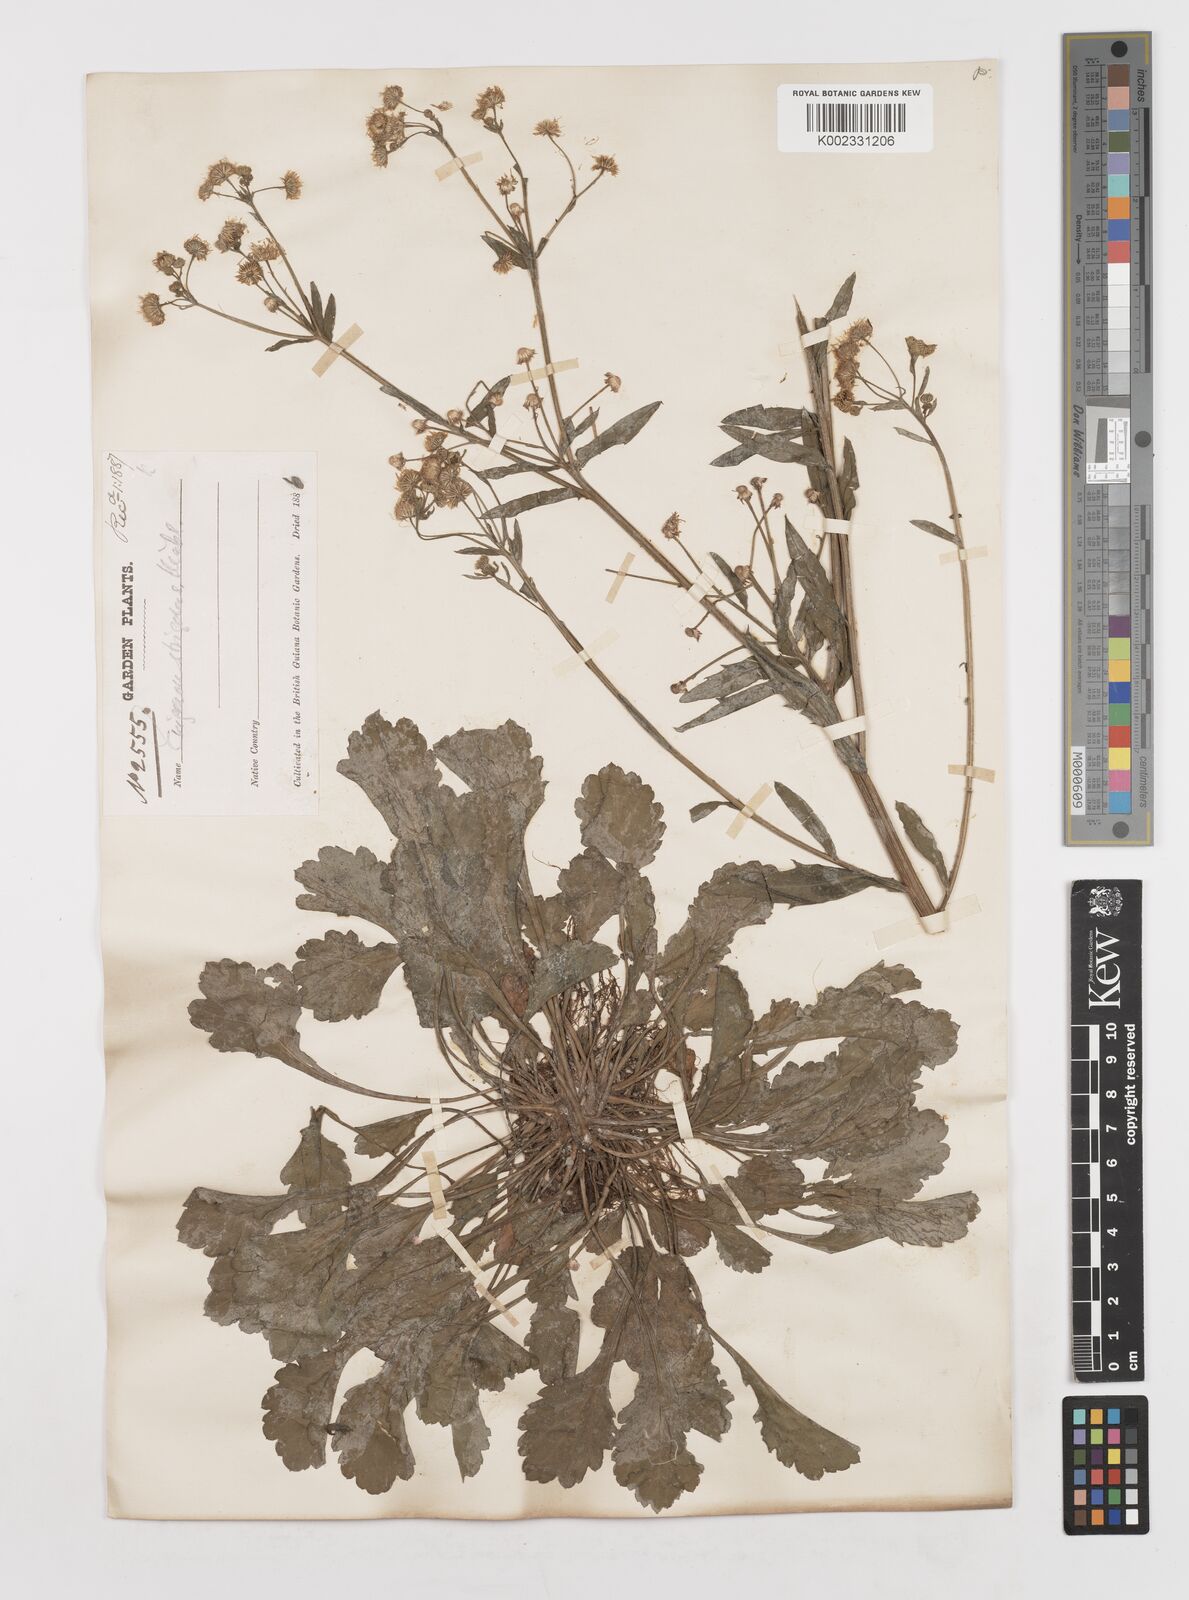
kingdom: Plantae
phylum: Tracheophyta
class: Magnoliopsida
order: Asterales
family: Asteraceae
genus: Erigeron
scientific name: Erigeron
